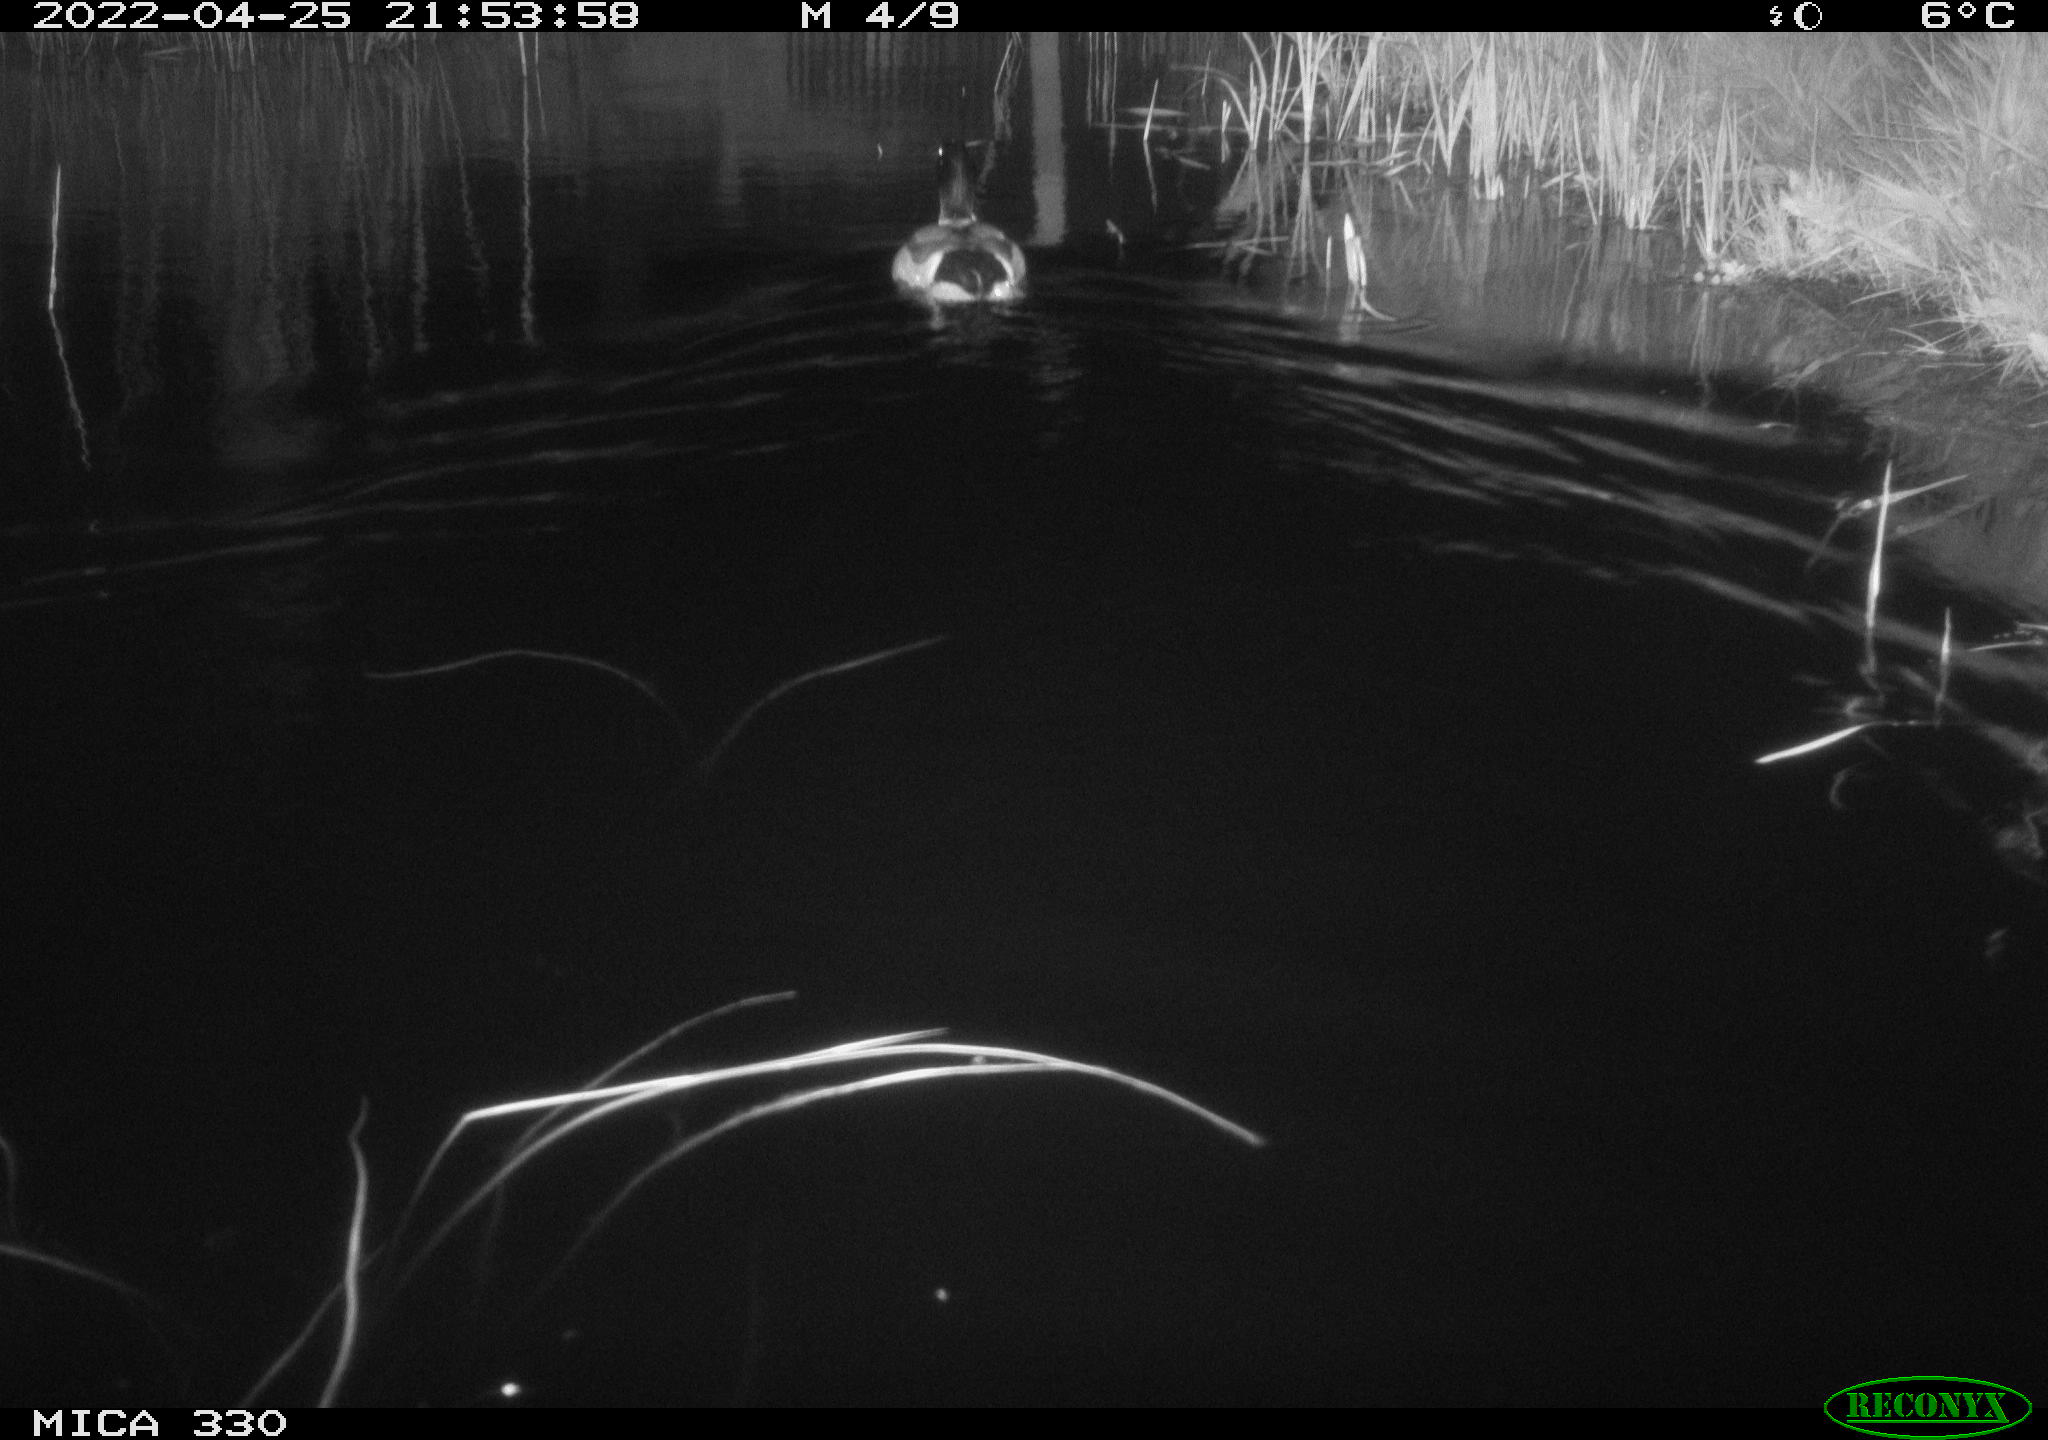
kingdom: Animalia
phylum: Chordata
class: Aves
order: Anseriformes
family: Anatidae
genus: Anas
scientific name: Anas platyrhynchos
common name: Mallard
